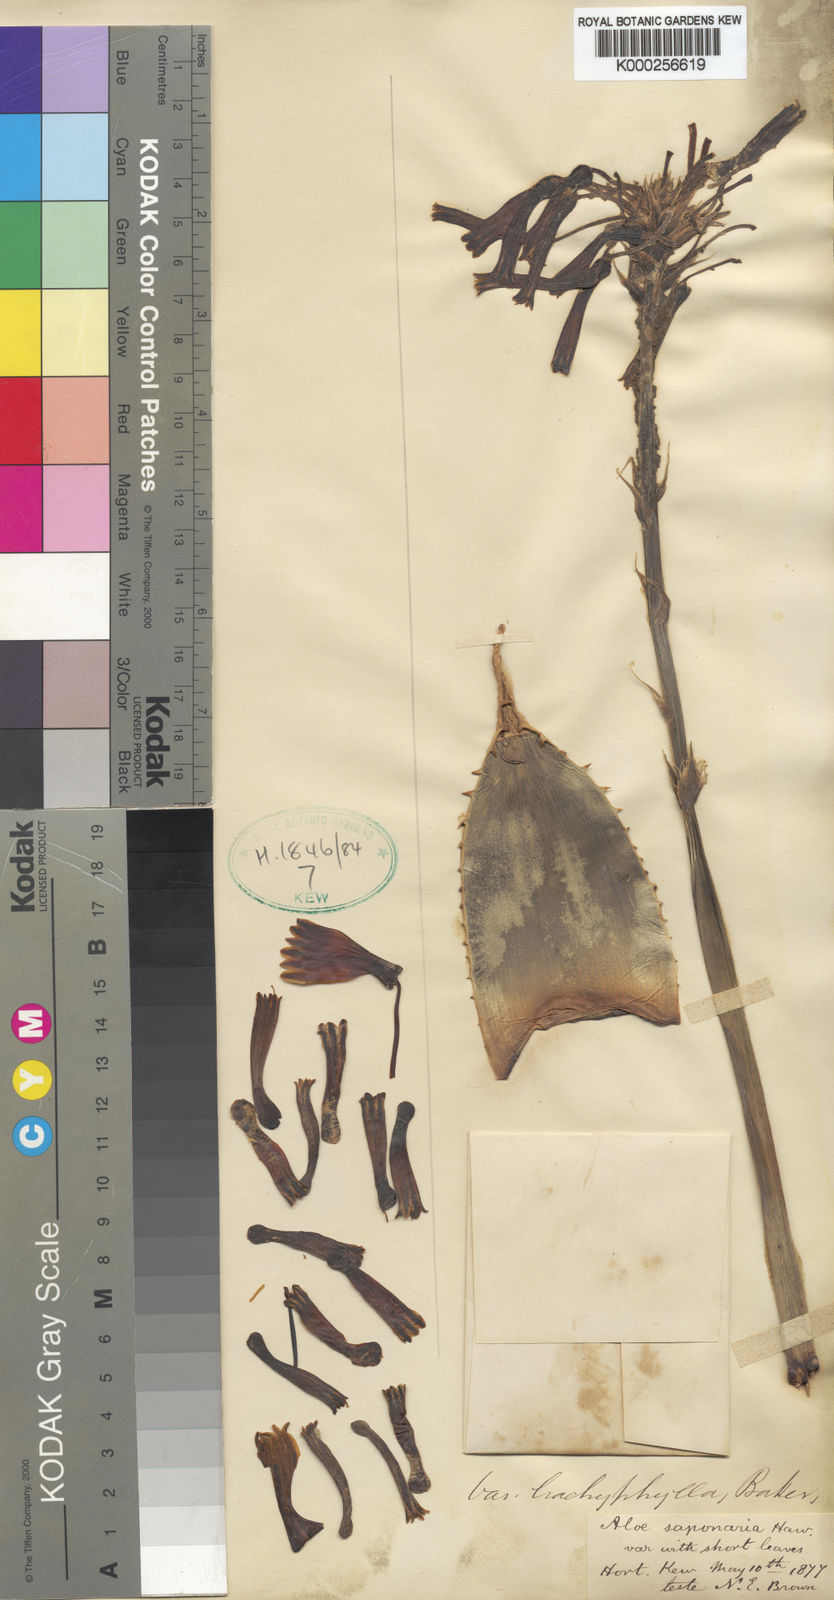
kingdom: Plantae
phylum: Tracheophyta
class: Liliopsida
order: Asparagales
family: Asphodelaceae
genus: Aloe
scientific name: Aloe microstigma
